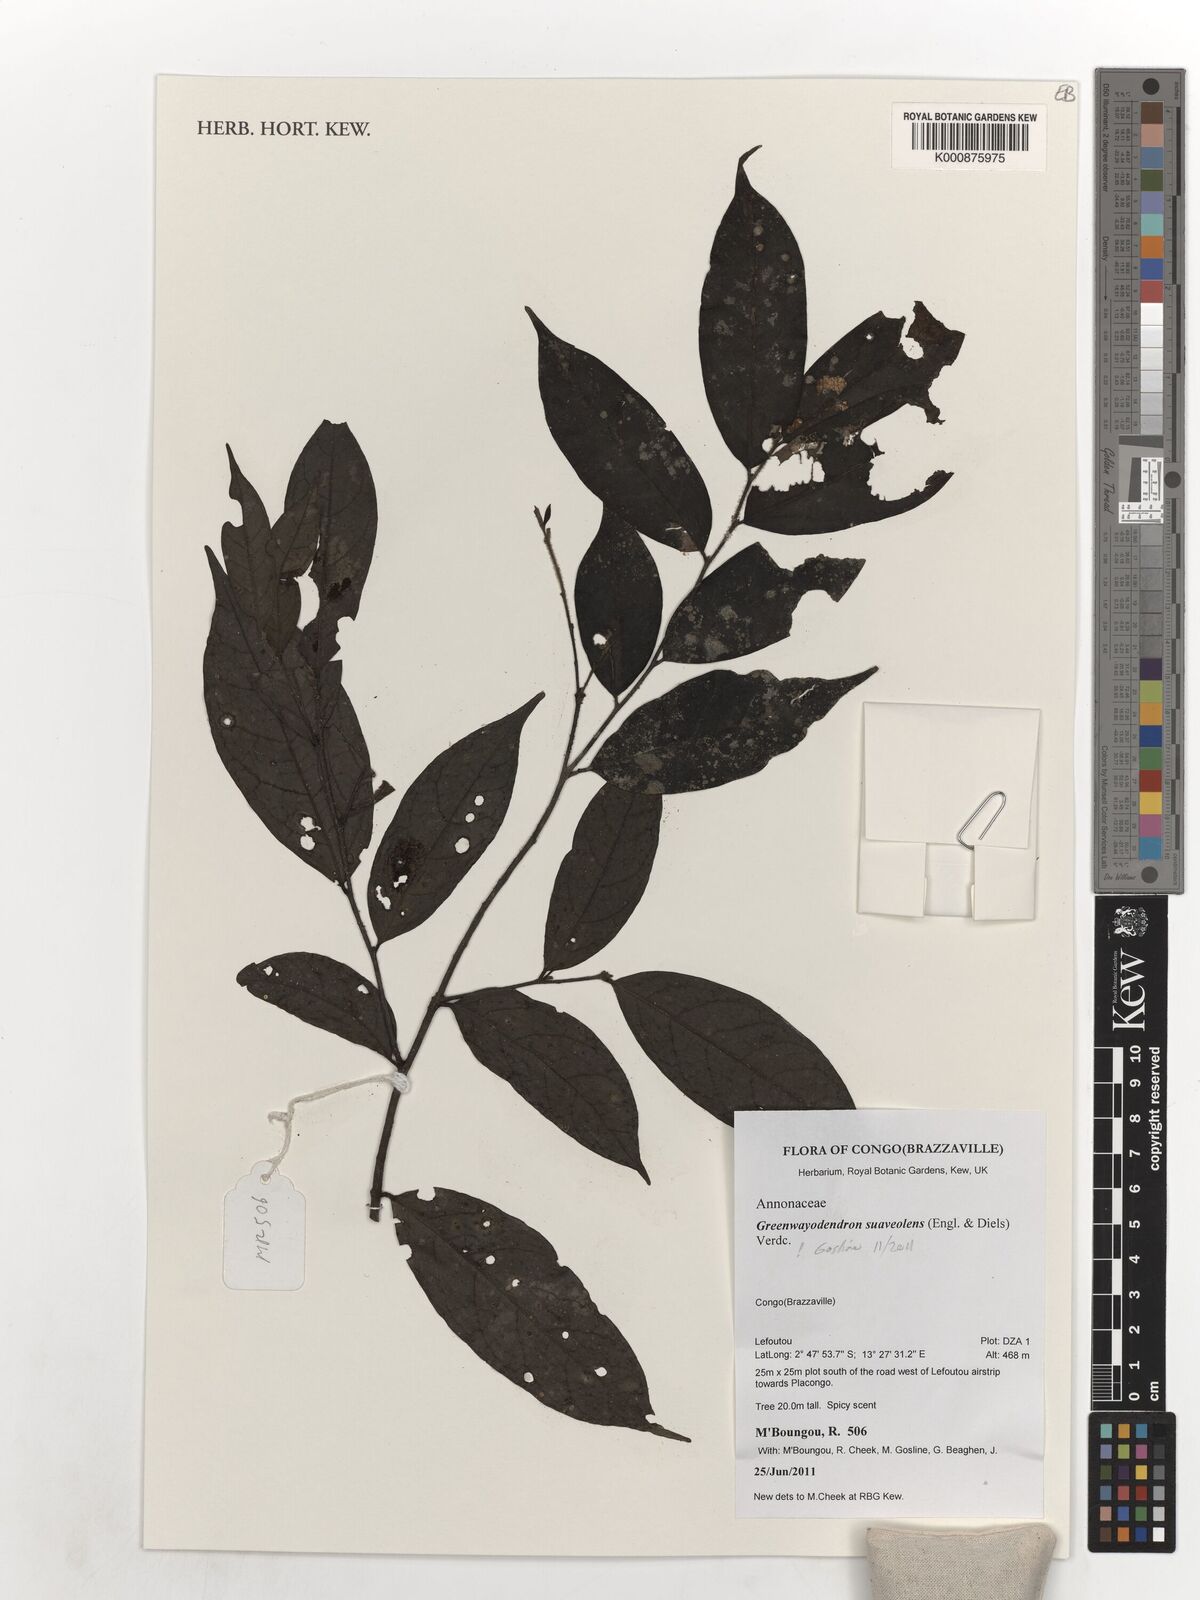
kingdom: Plantae
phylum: Tracheophyta
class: Magnoliopsida
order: Magnoliales
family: Annonaceae
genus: Greenwayodendron
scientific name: Greenwayodendron suaveolens
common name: Molinda
